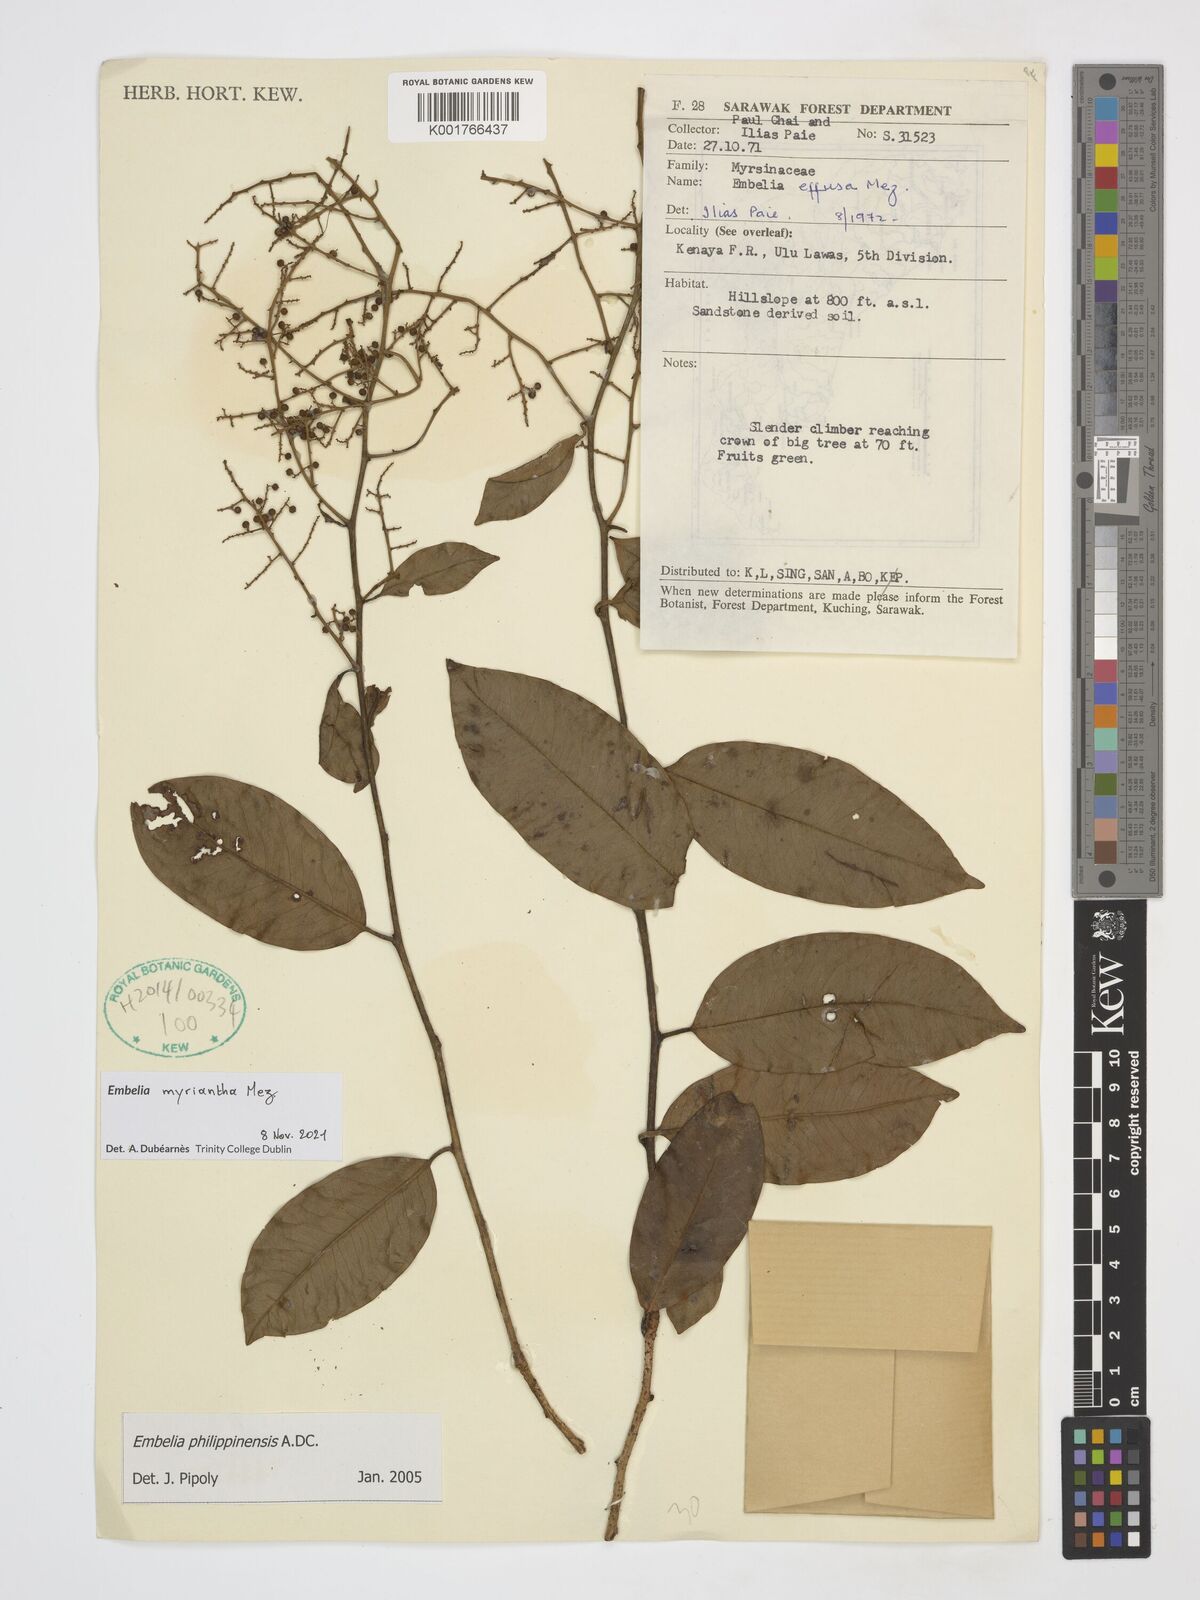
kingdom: Plantae
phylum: Tracheophyta
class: Magnoliopsida
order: Ericales
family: Primulaceae
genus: Embelia
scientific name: Embelia myriantha
